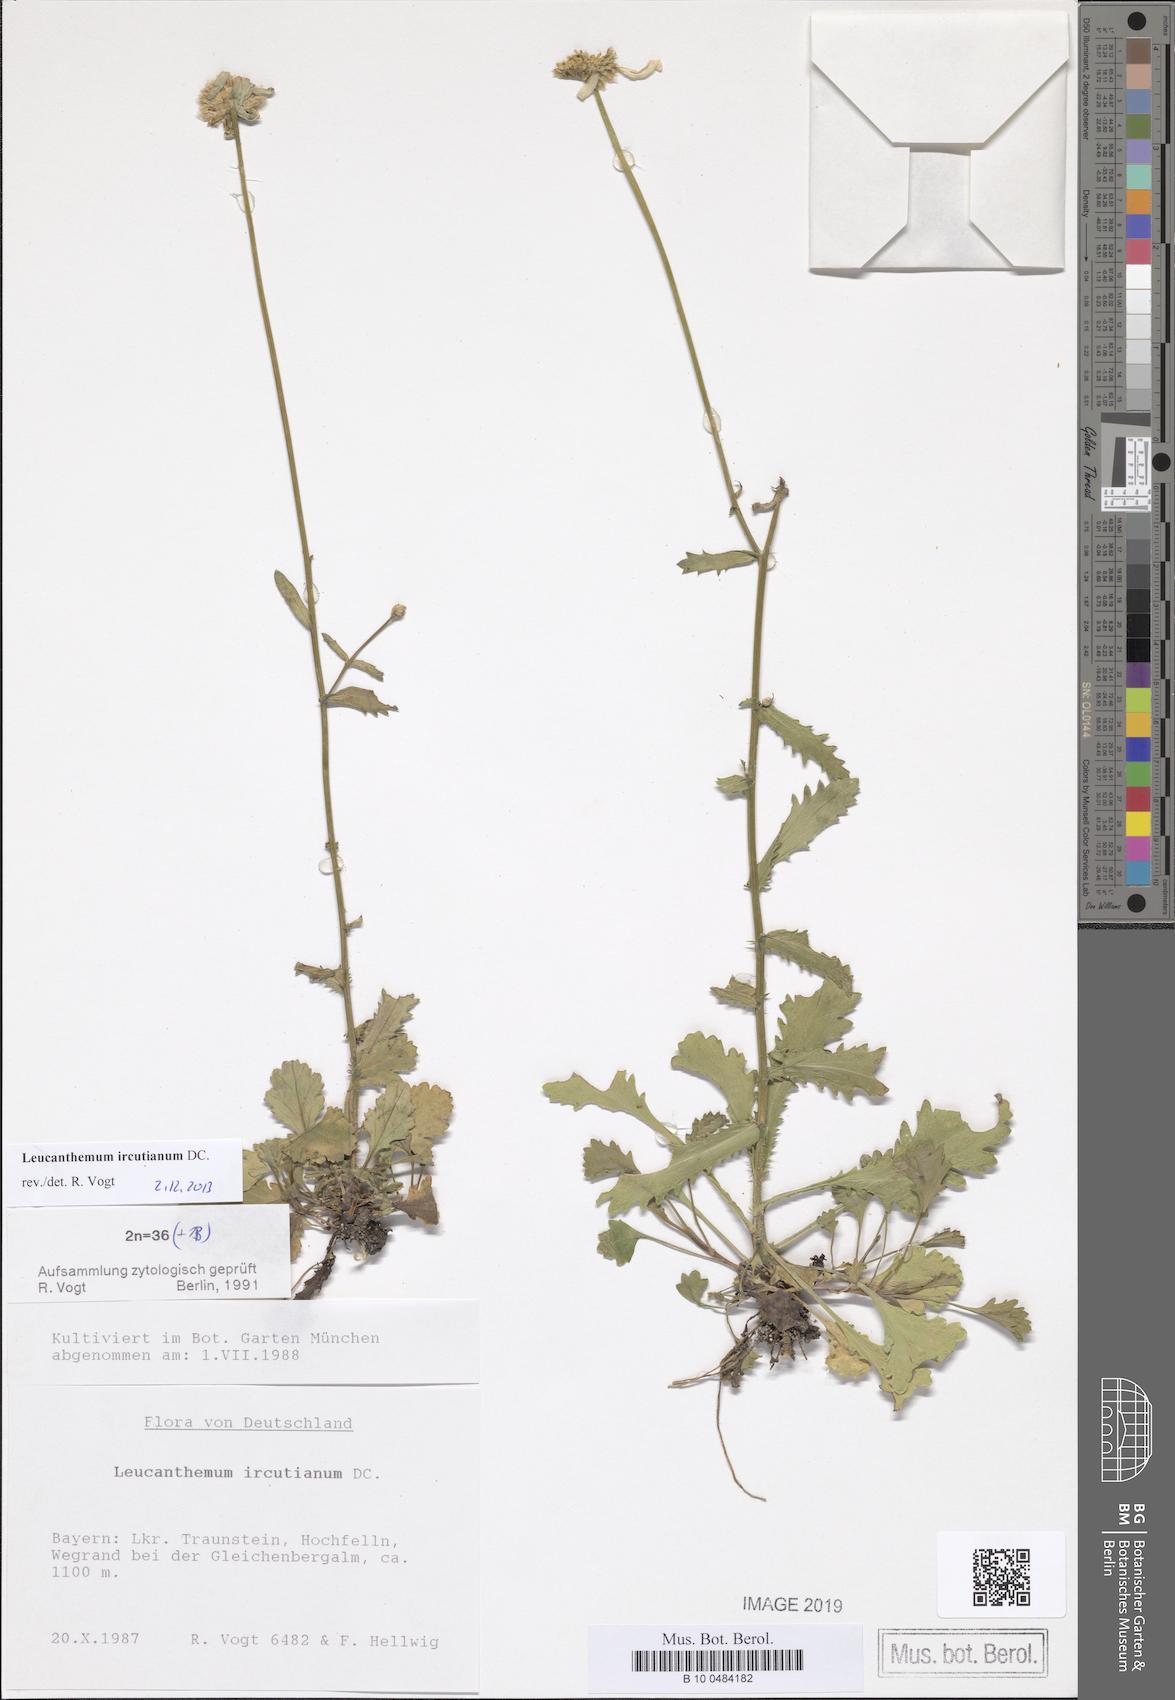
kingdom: Plantae
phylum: Tracheophyta
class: Magnoliopsida
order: Asterales
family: Asteraceae
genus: Leucanthemum
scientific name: Leucanthemum ircutianum
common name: Daisy
